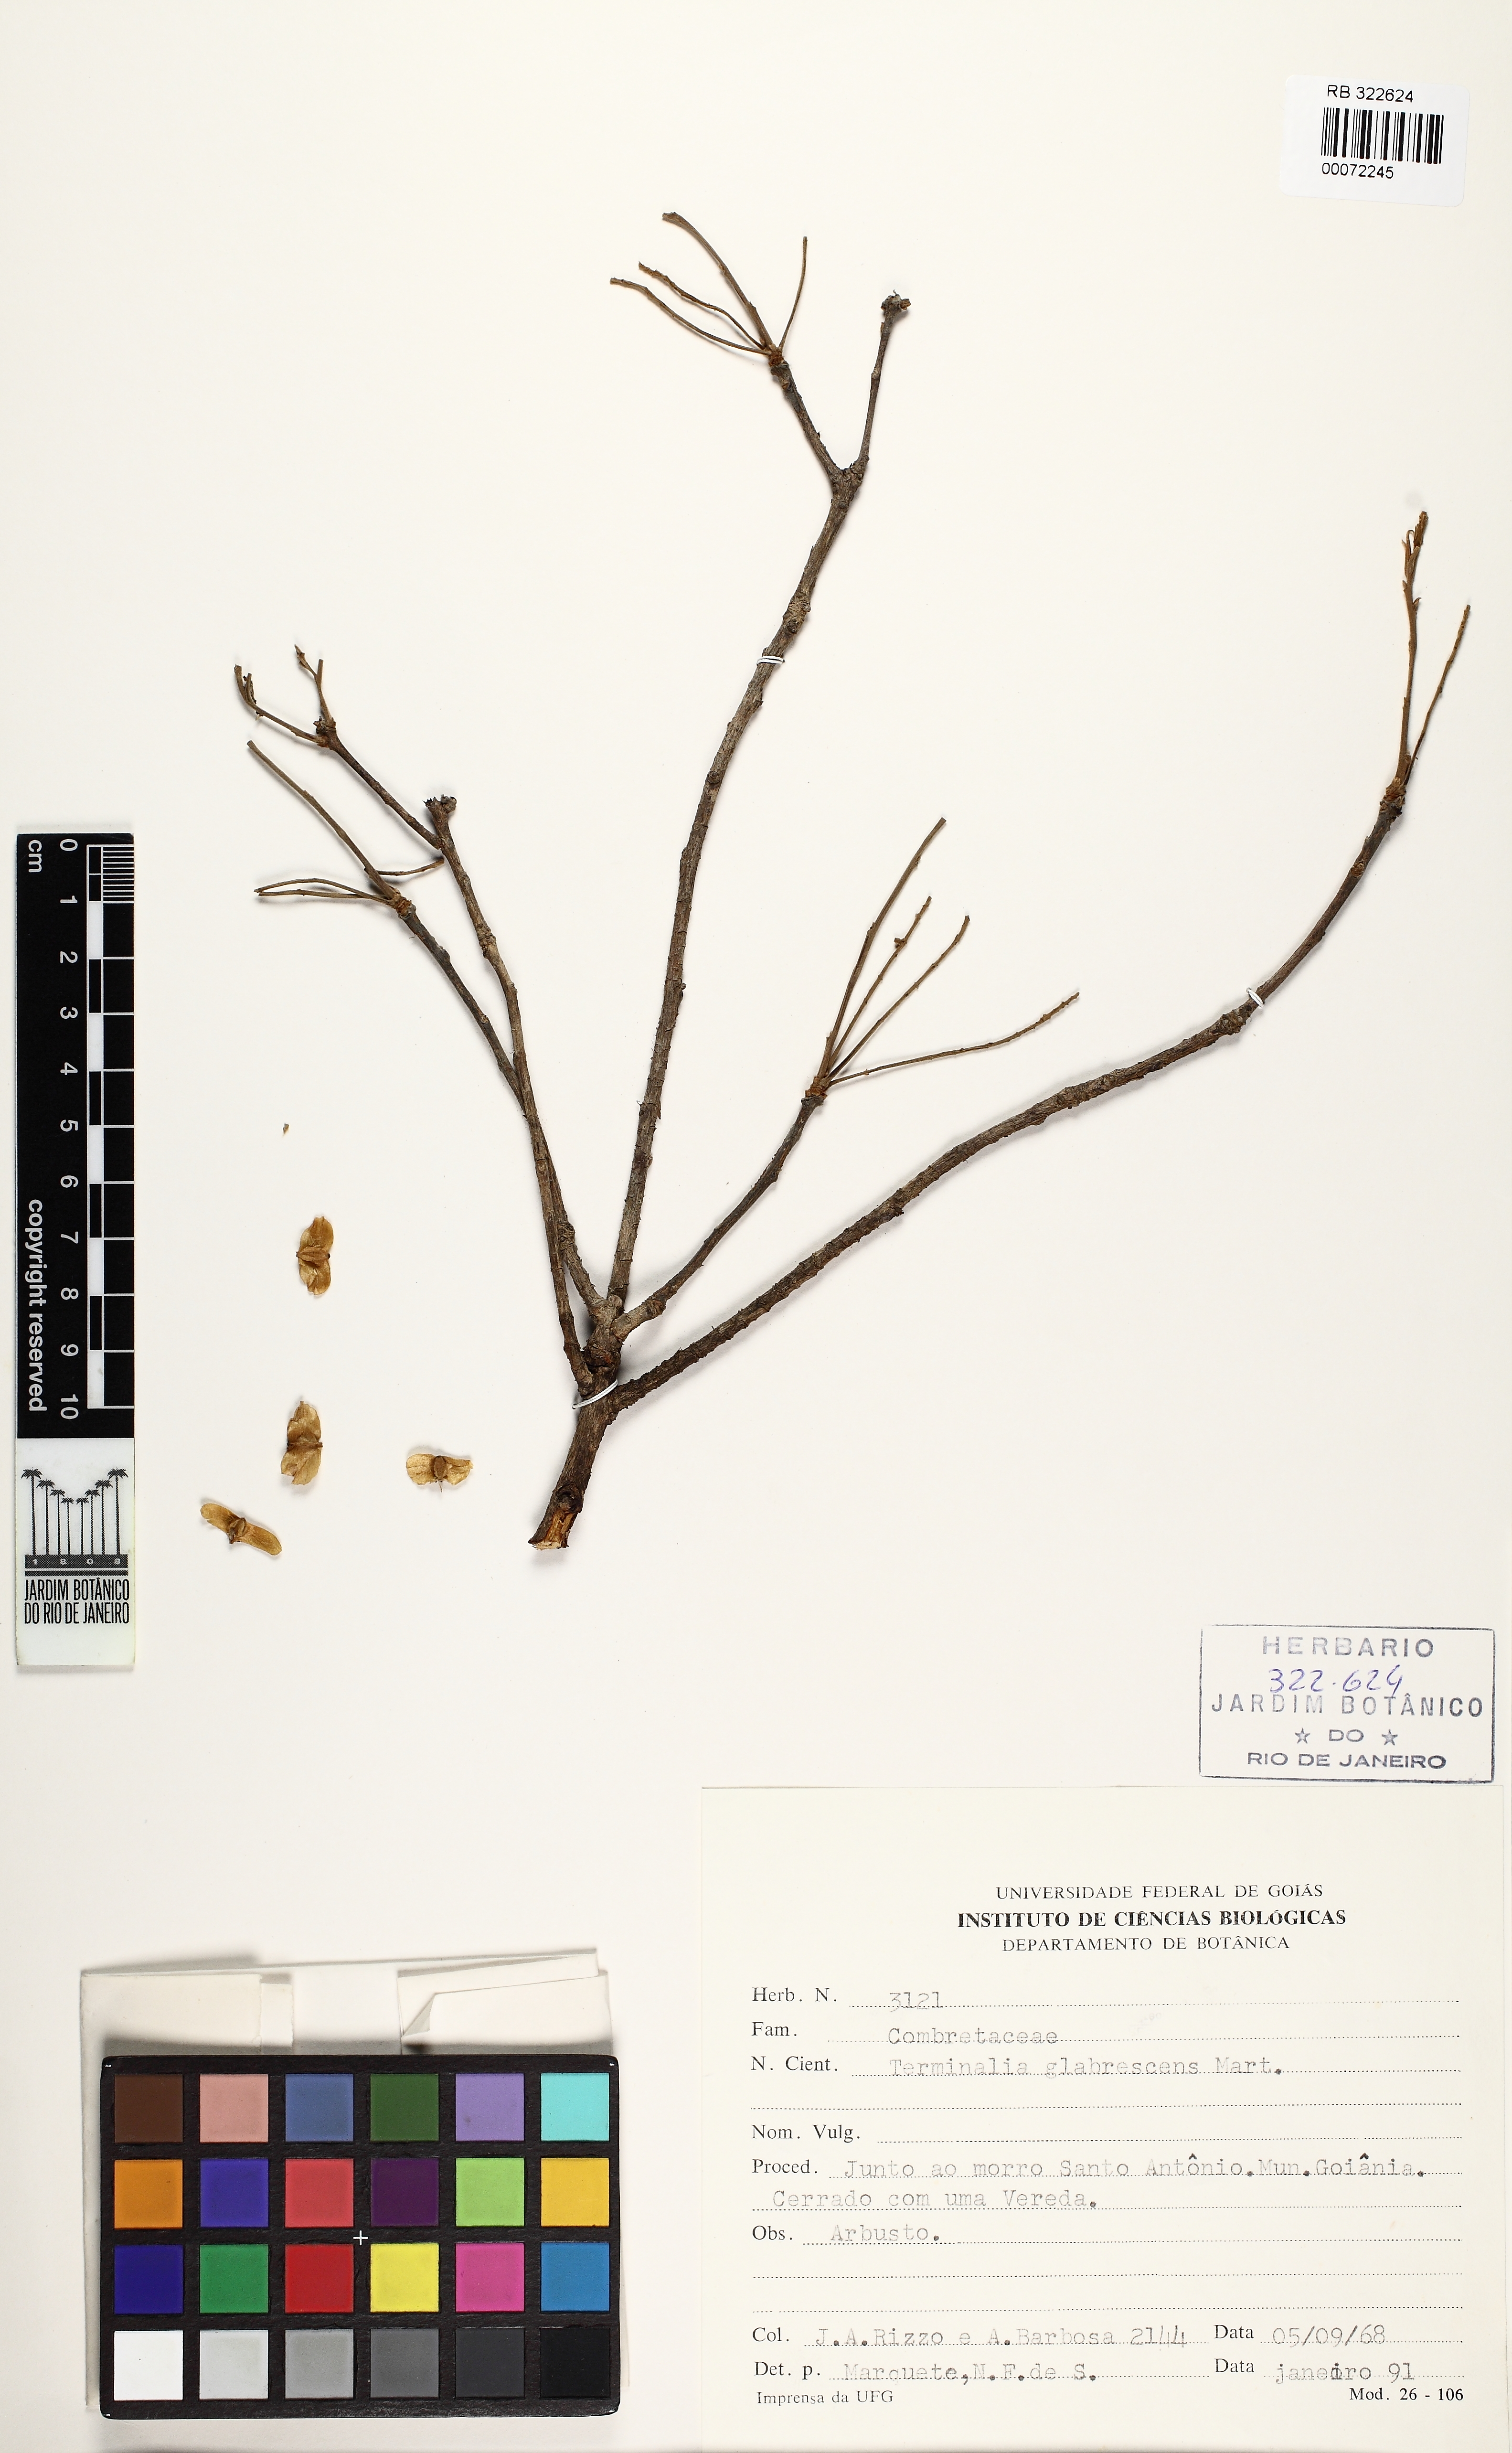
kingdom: Plantae
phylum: Tracheophyta
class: Magnoliopsida
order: Myrtales
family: Combretaceae
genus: Terminalia
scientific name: Terminalia glabrescens
